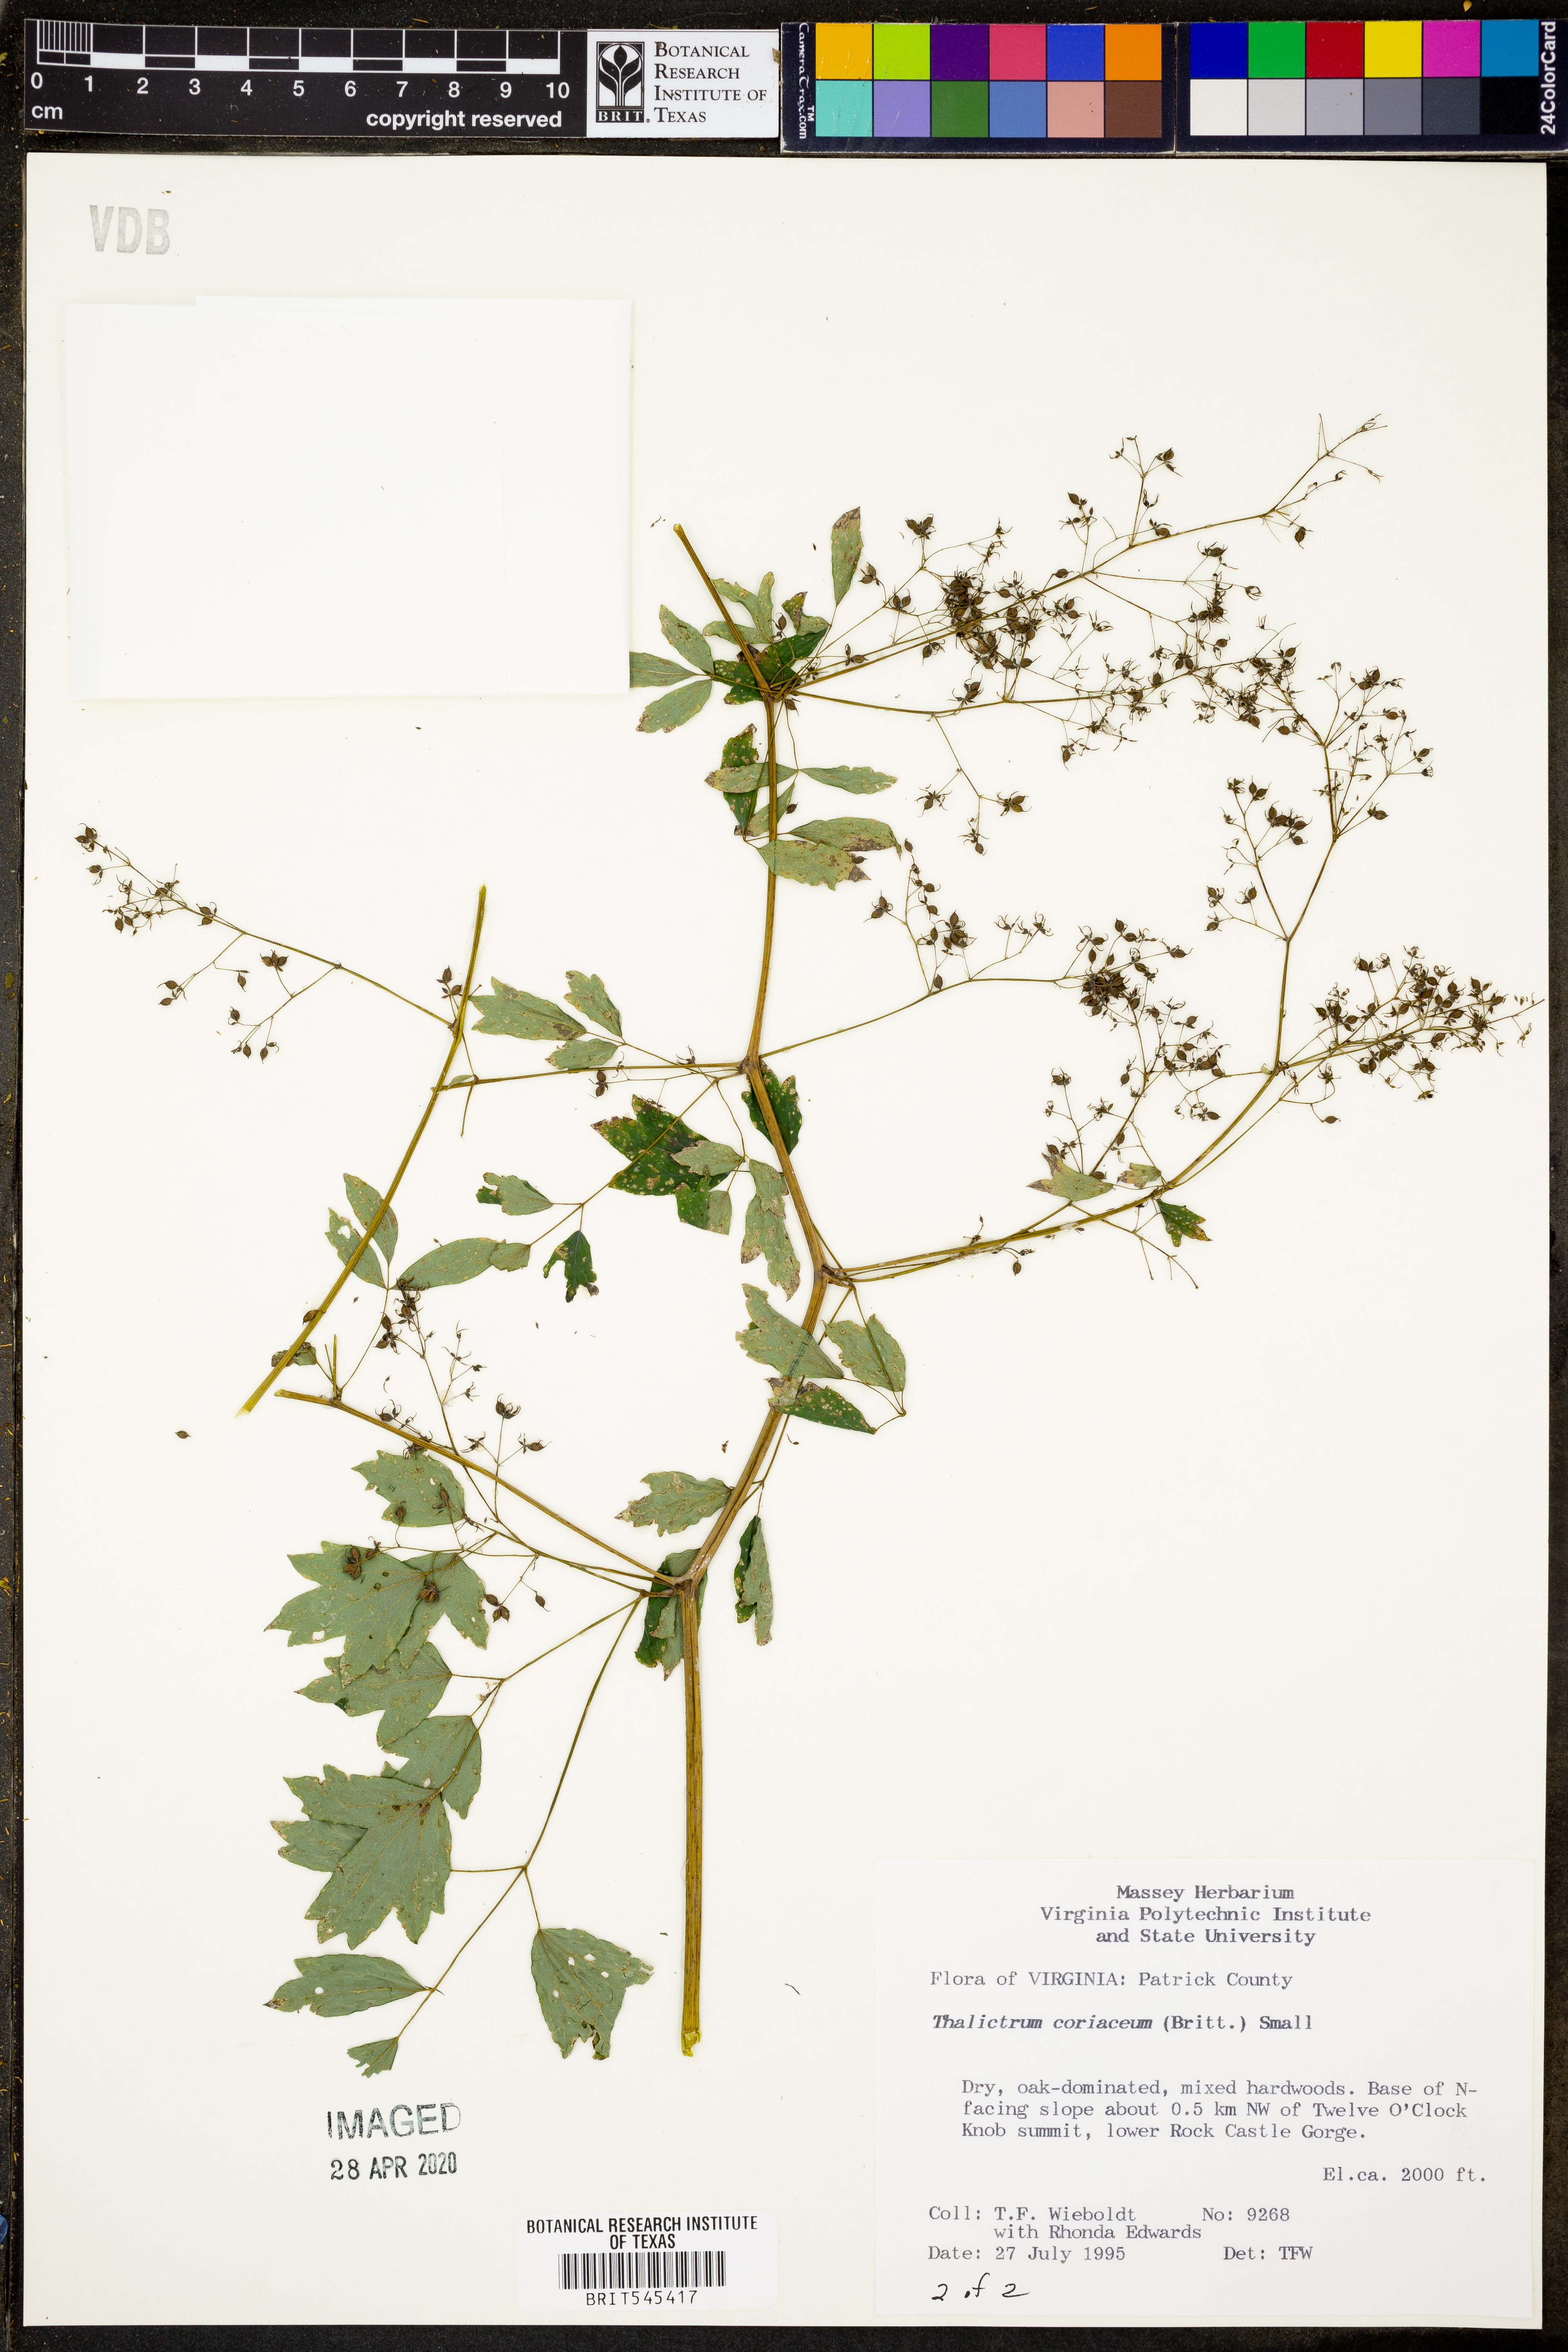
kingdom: Plantae
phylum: Tracheophyta
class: Magnoliopsida
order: Ranunculales
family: Ranunculaceae
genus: Thalictrum
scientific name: Thalictrum coriaceum
